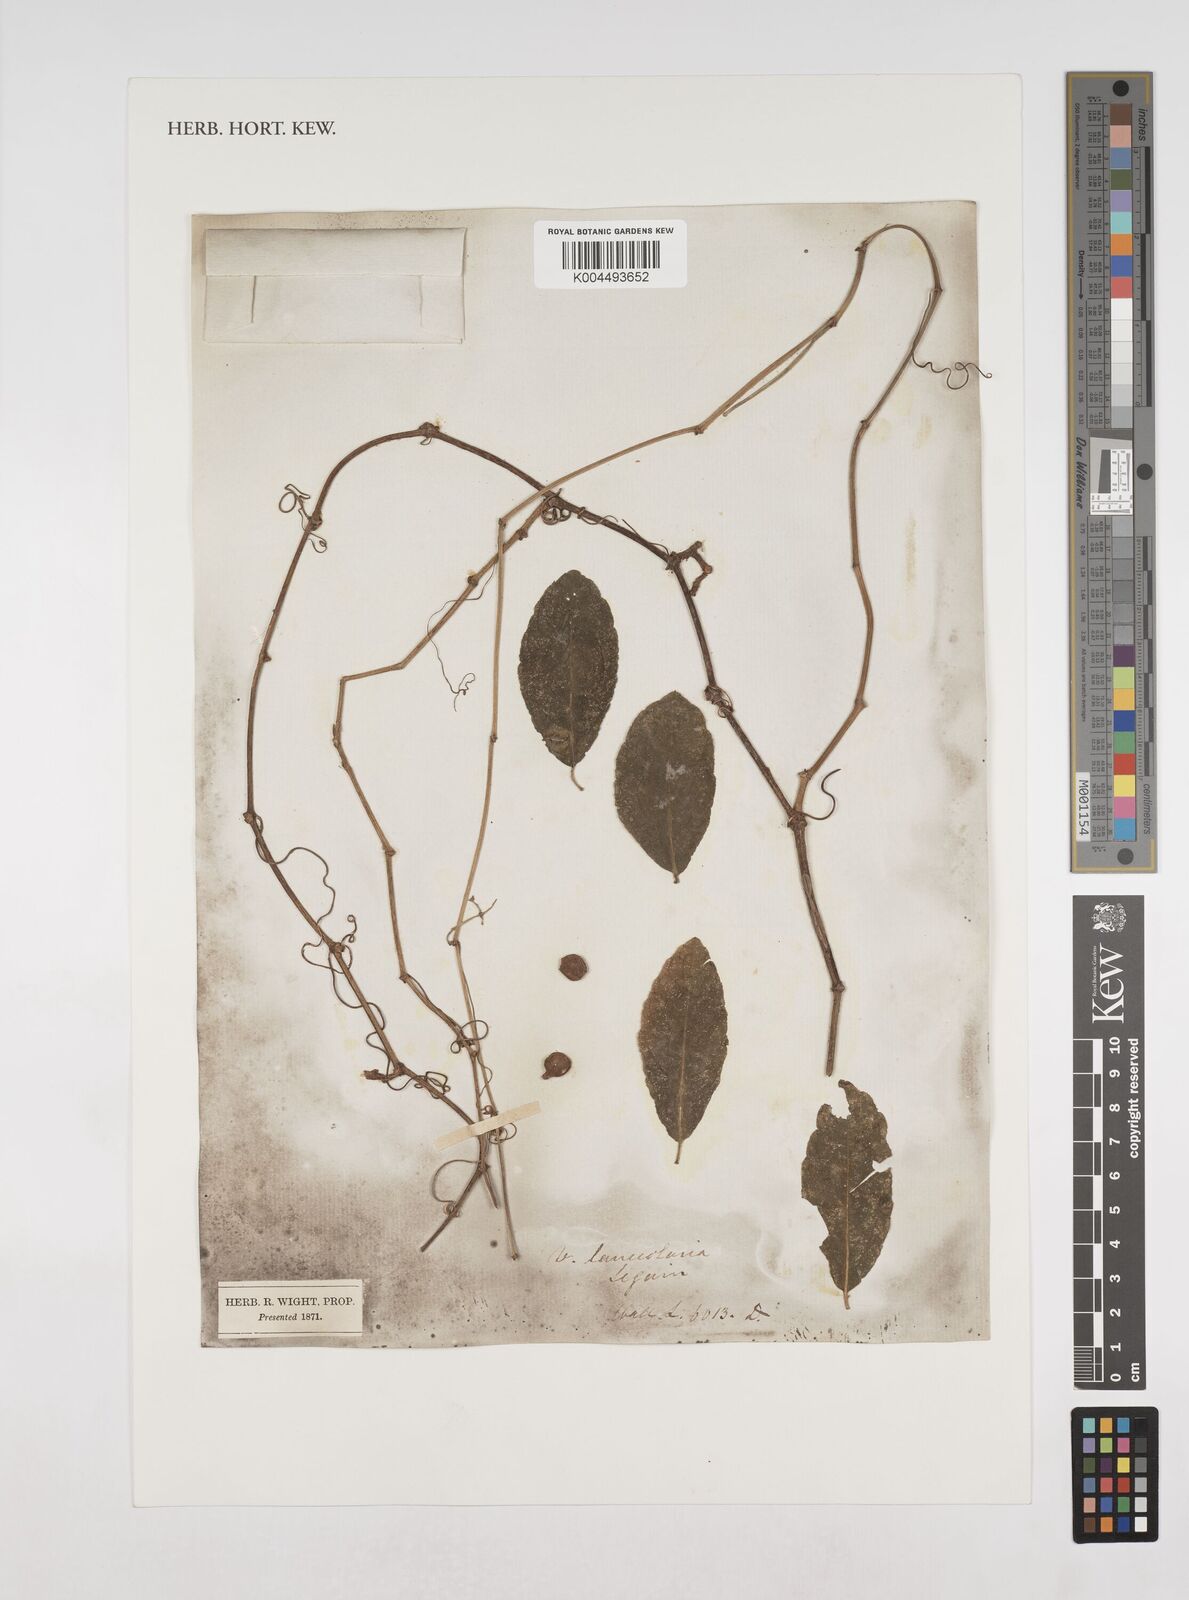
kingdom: Plantae
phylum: Tracheophyta
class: Magnoliopsida
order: Vitales
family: Vitaceae
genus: Tetrastigma
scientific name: Tetrastigma leucostaphylum
